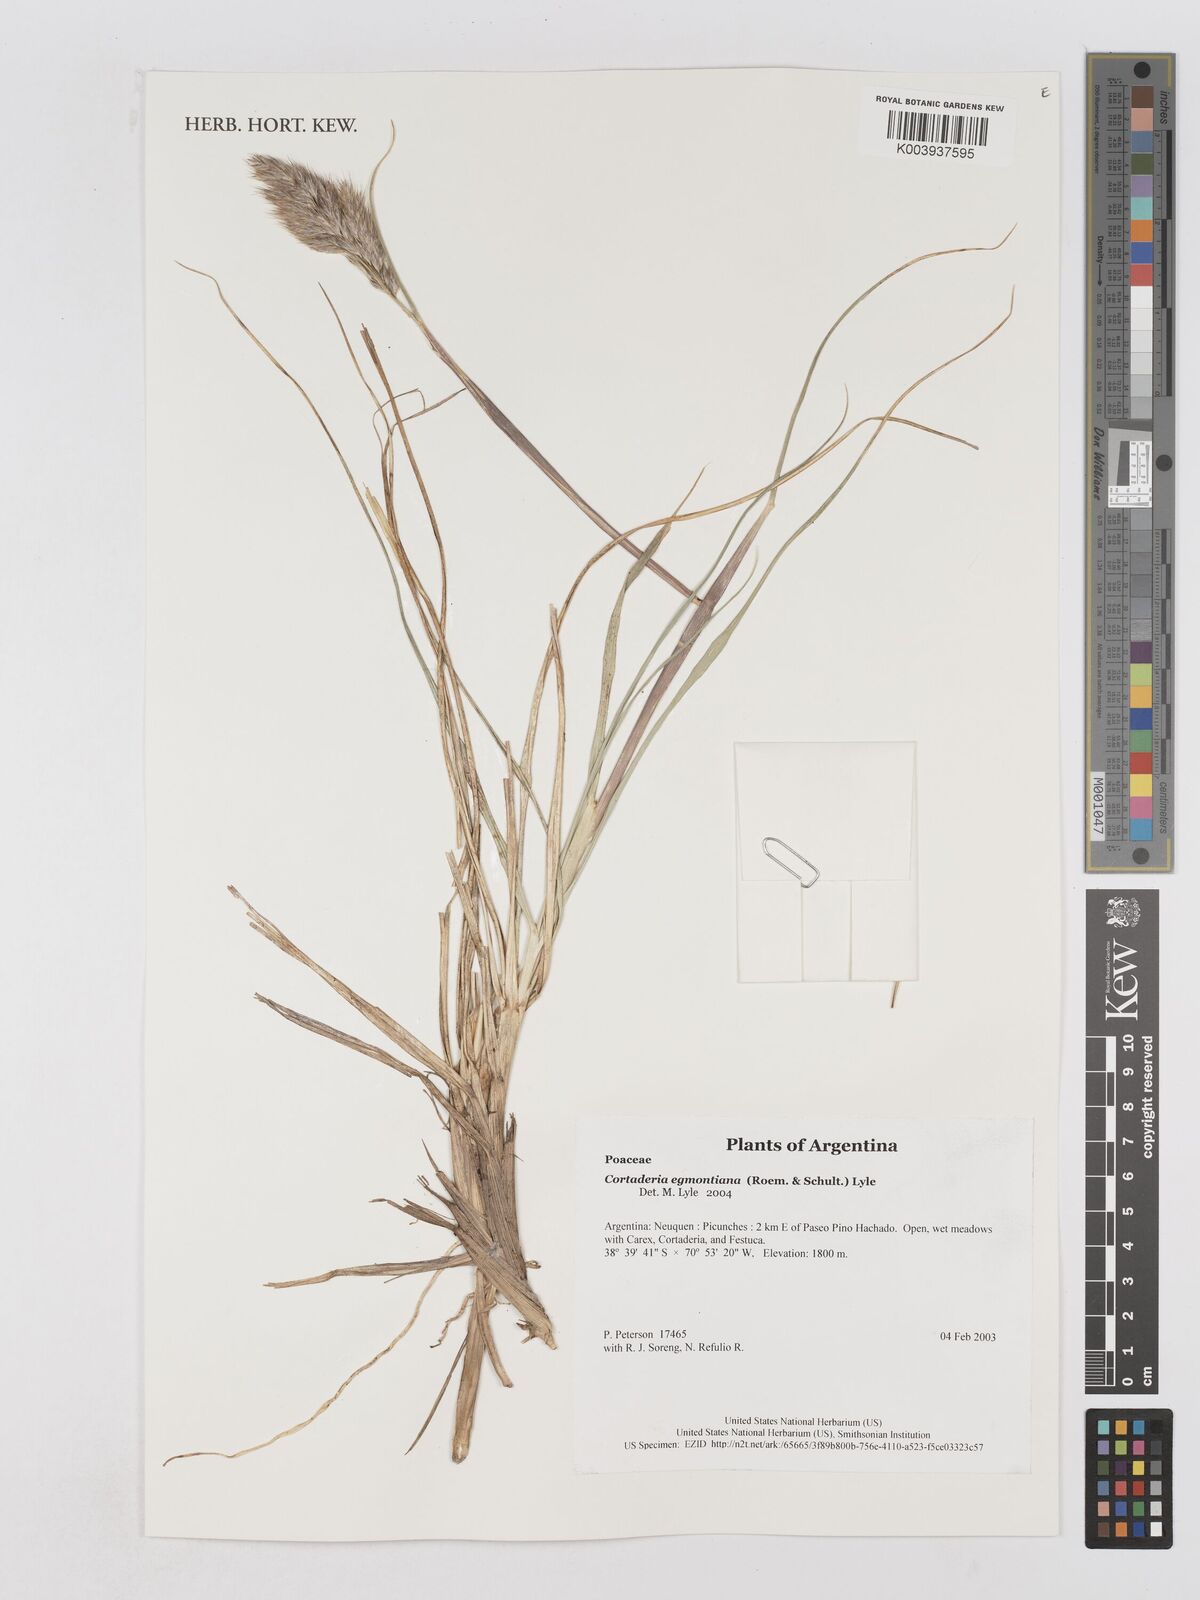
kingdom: Plantae
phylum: Tracheophyta
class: Liliopsida
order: Poales
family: Poaceae
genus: Cortaderia
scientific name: Cortaderia egmontiana
